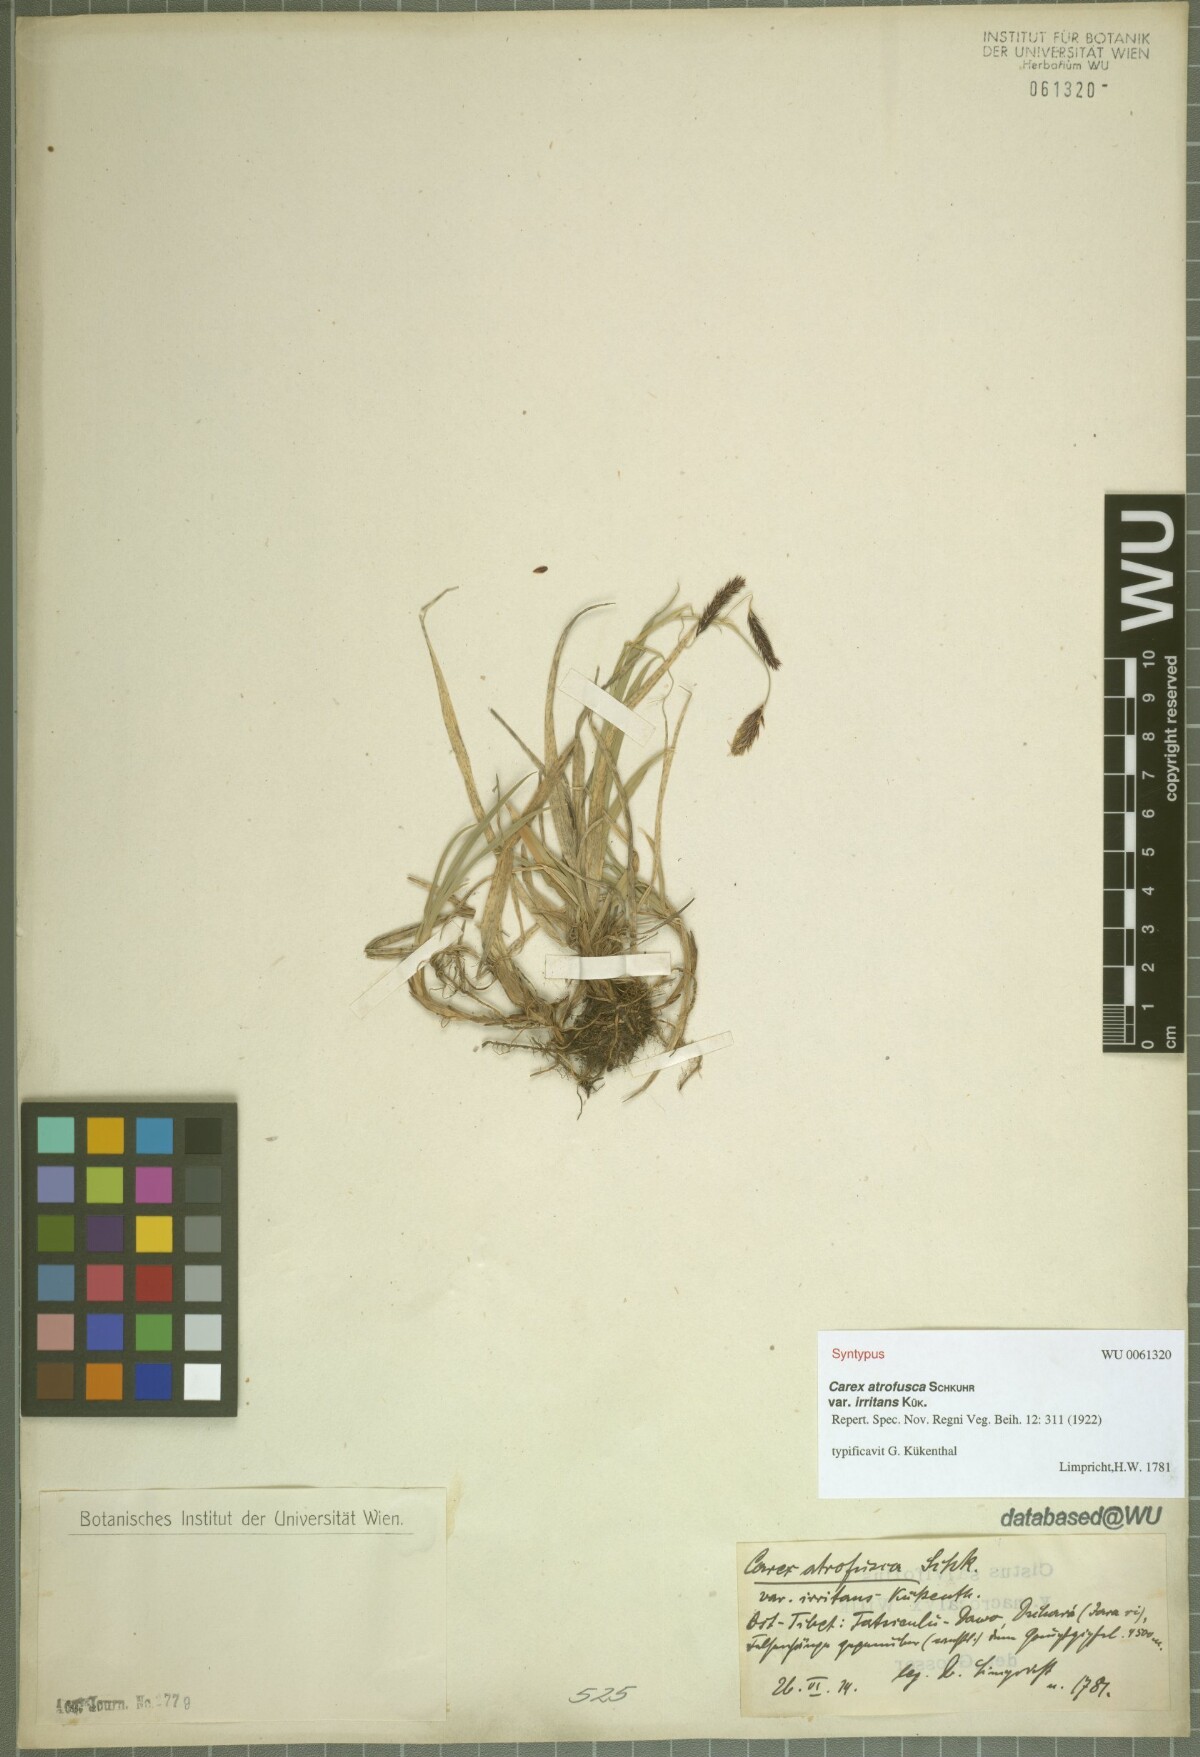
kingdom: Plantae
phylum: Tracheophyta
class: Liliopsida
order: Poales
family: Cyperaceae
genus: Carex
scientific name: Carex atrofusca
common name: Scorched alpine-sedge
